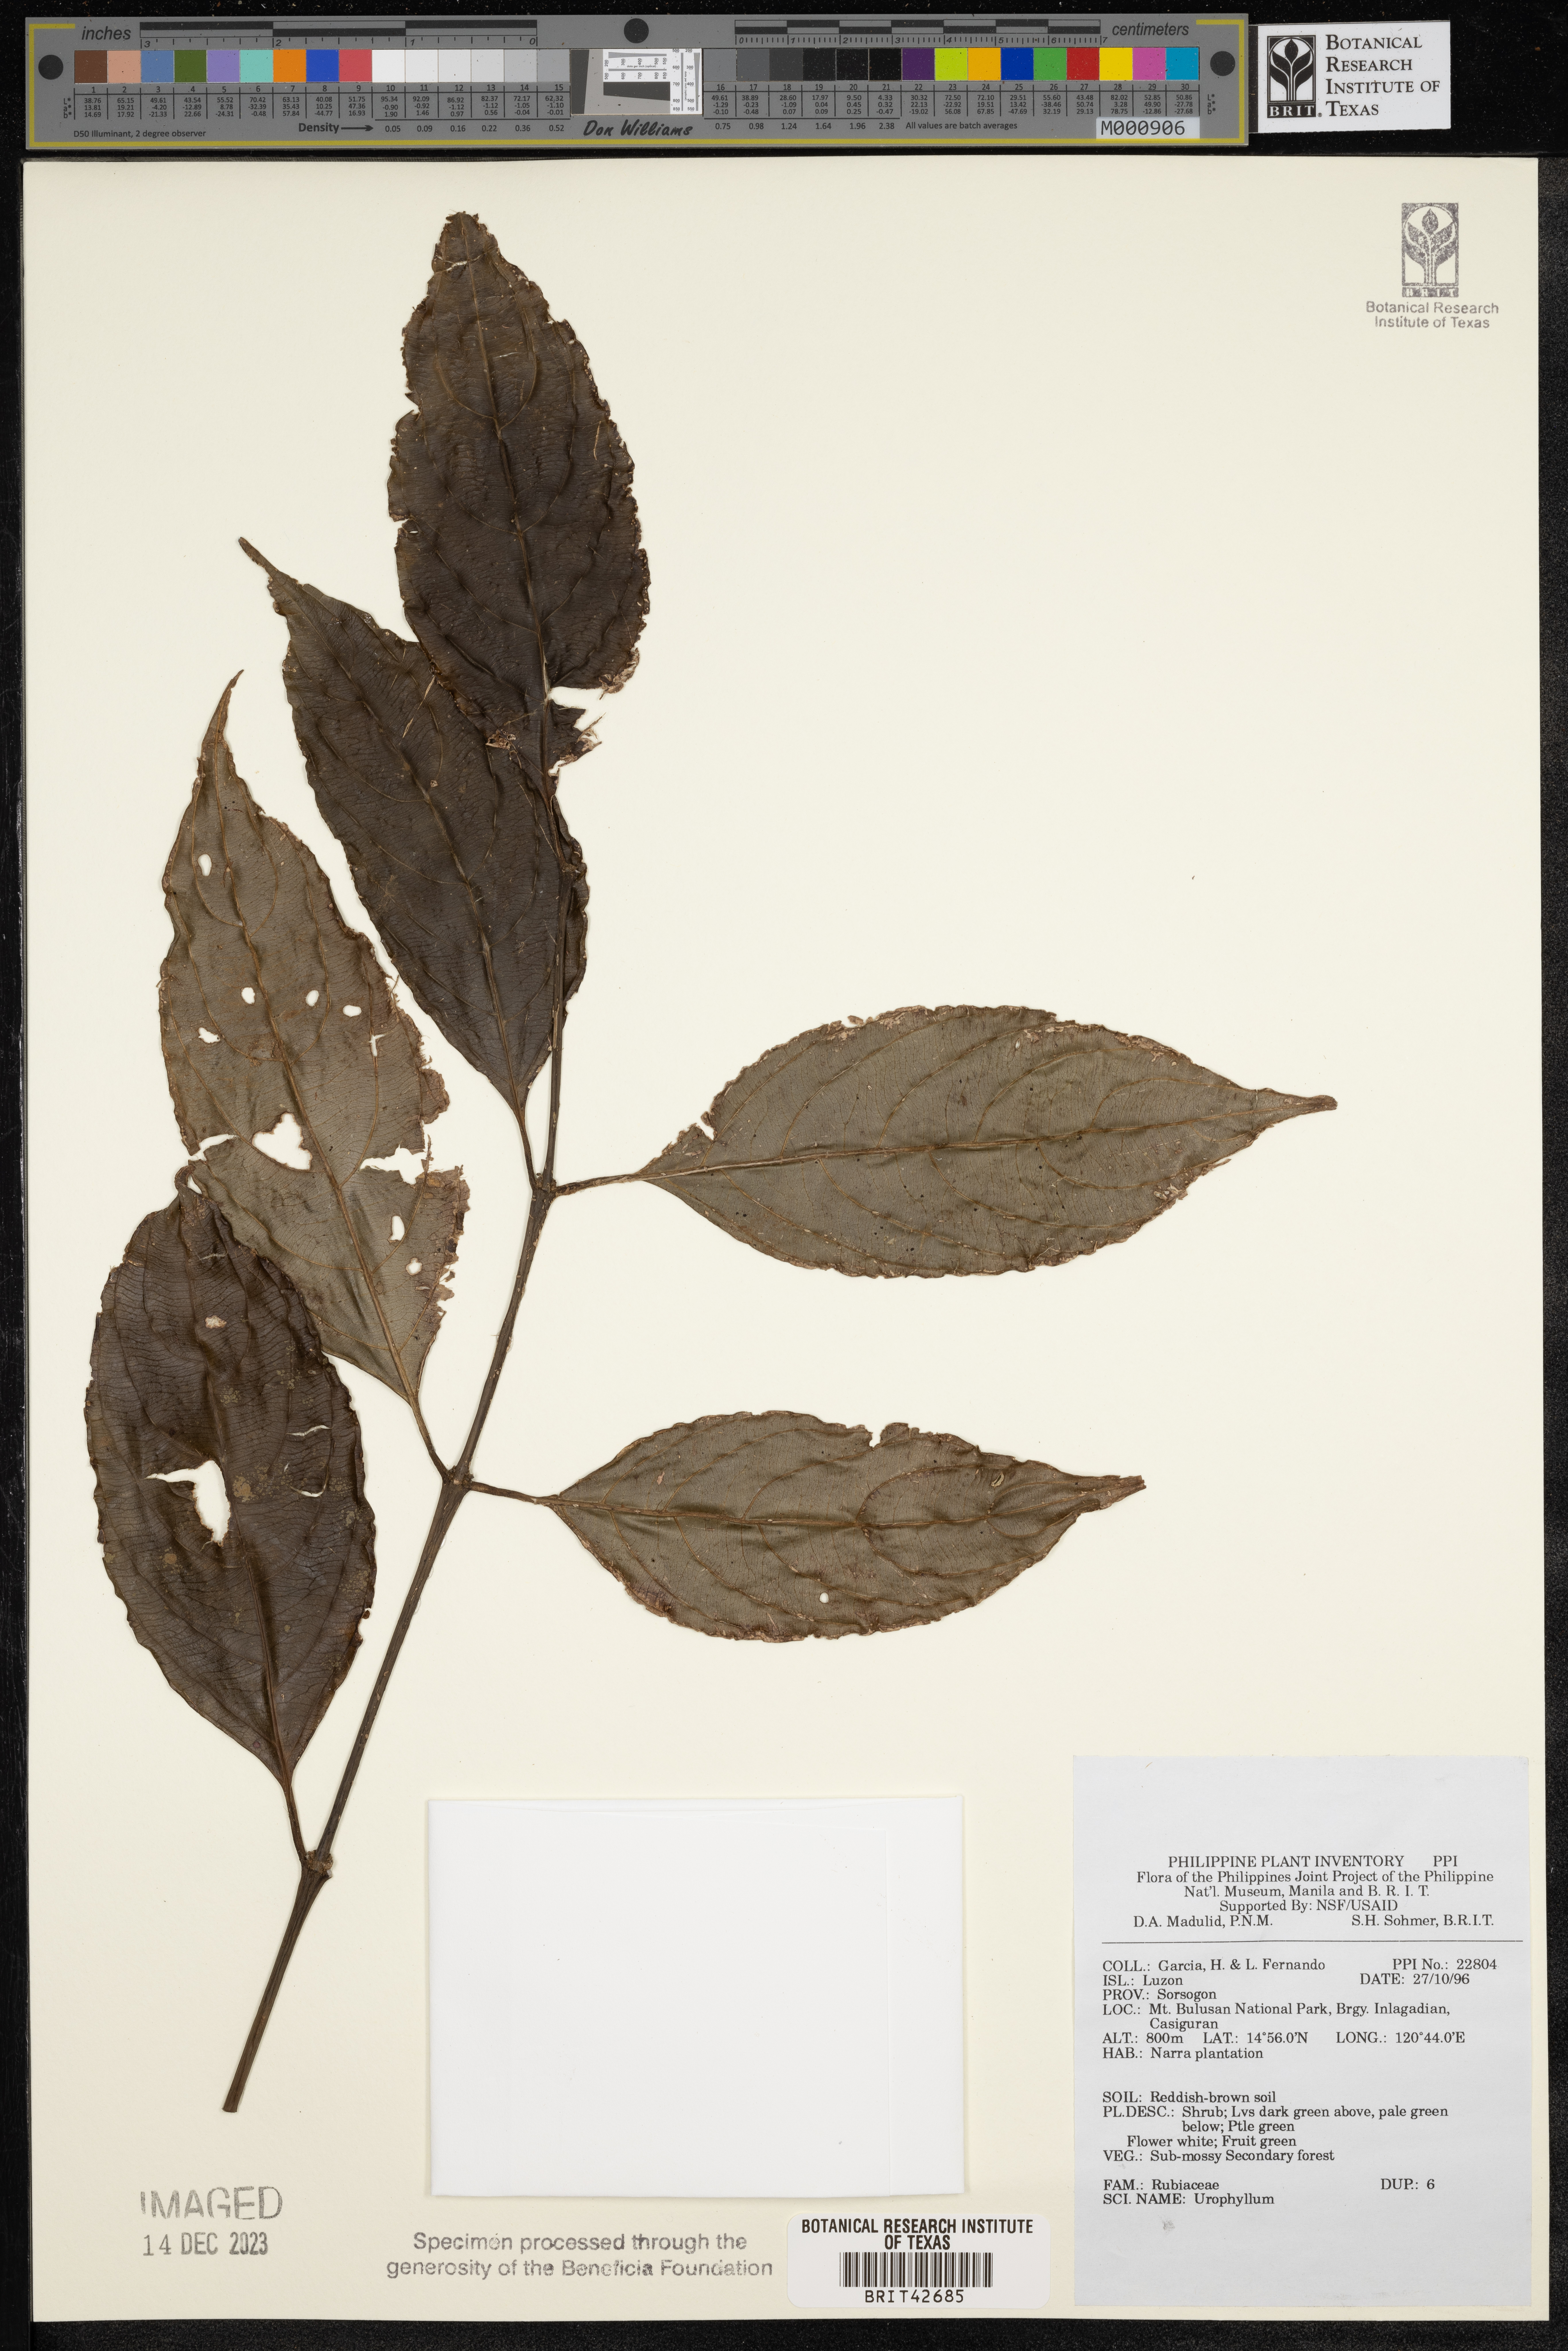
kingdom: Plantae
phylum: Tracheophyta
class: Magnoliopsida
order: Gentianales
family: Rubiaceae
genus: Urophyllum
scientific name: Urophyllum
